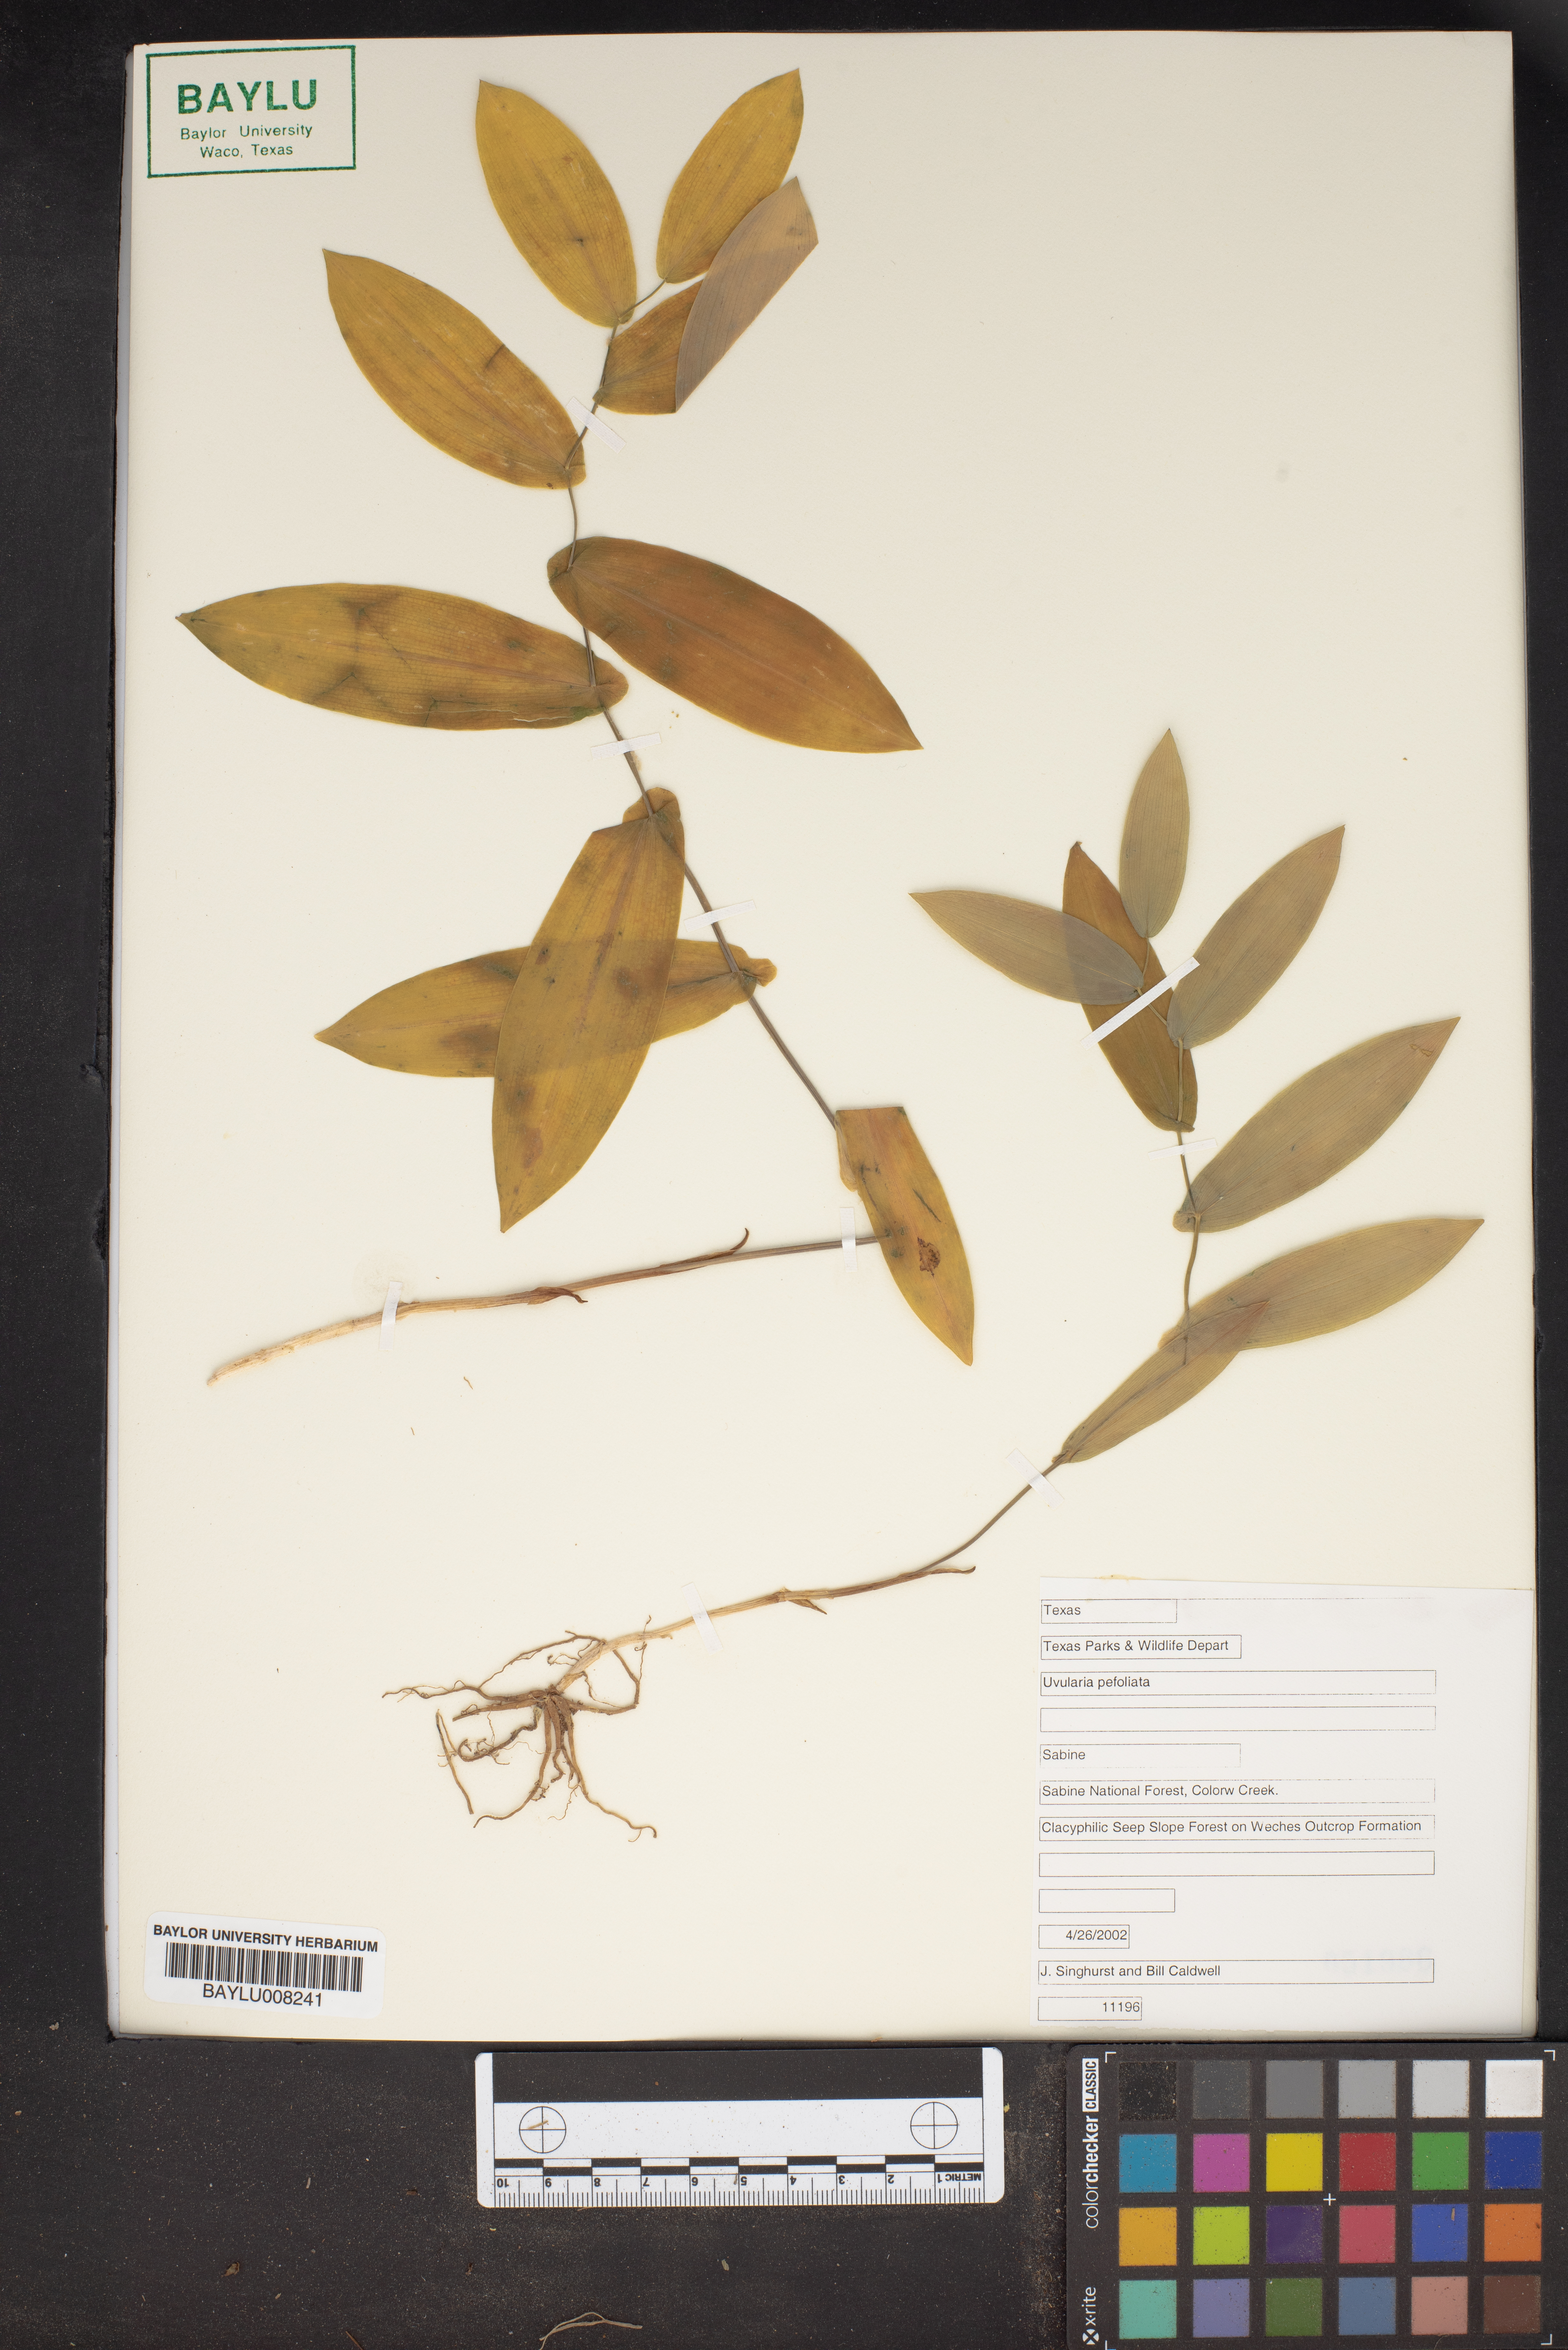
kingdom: Plantae
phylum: Tracheophyta
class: Liliopsida
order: Liliales
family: Colchicaceae
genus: Uvularia
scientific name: Uvularia perfoliata
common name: Perfoliate bellwort
